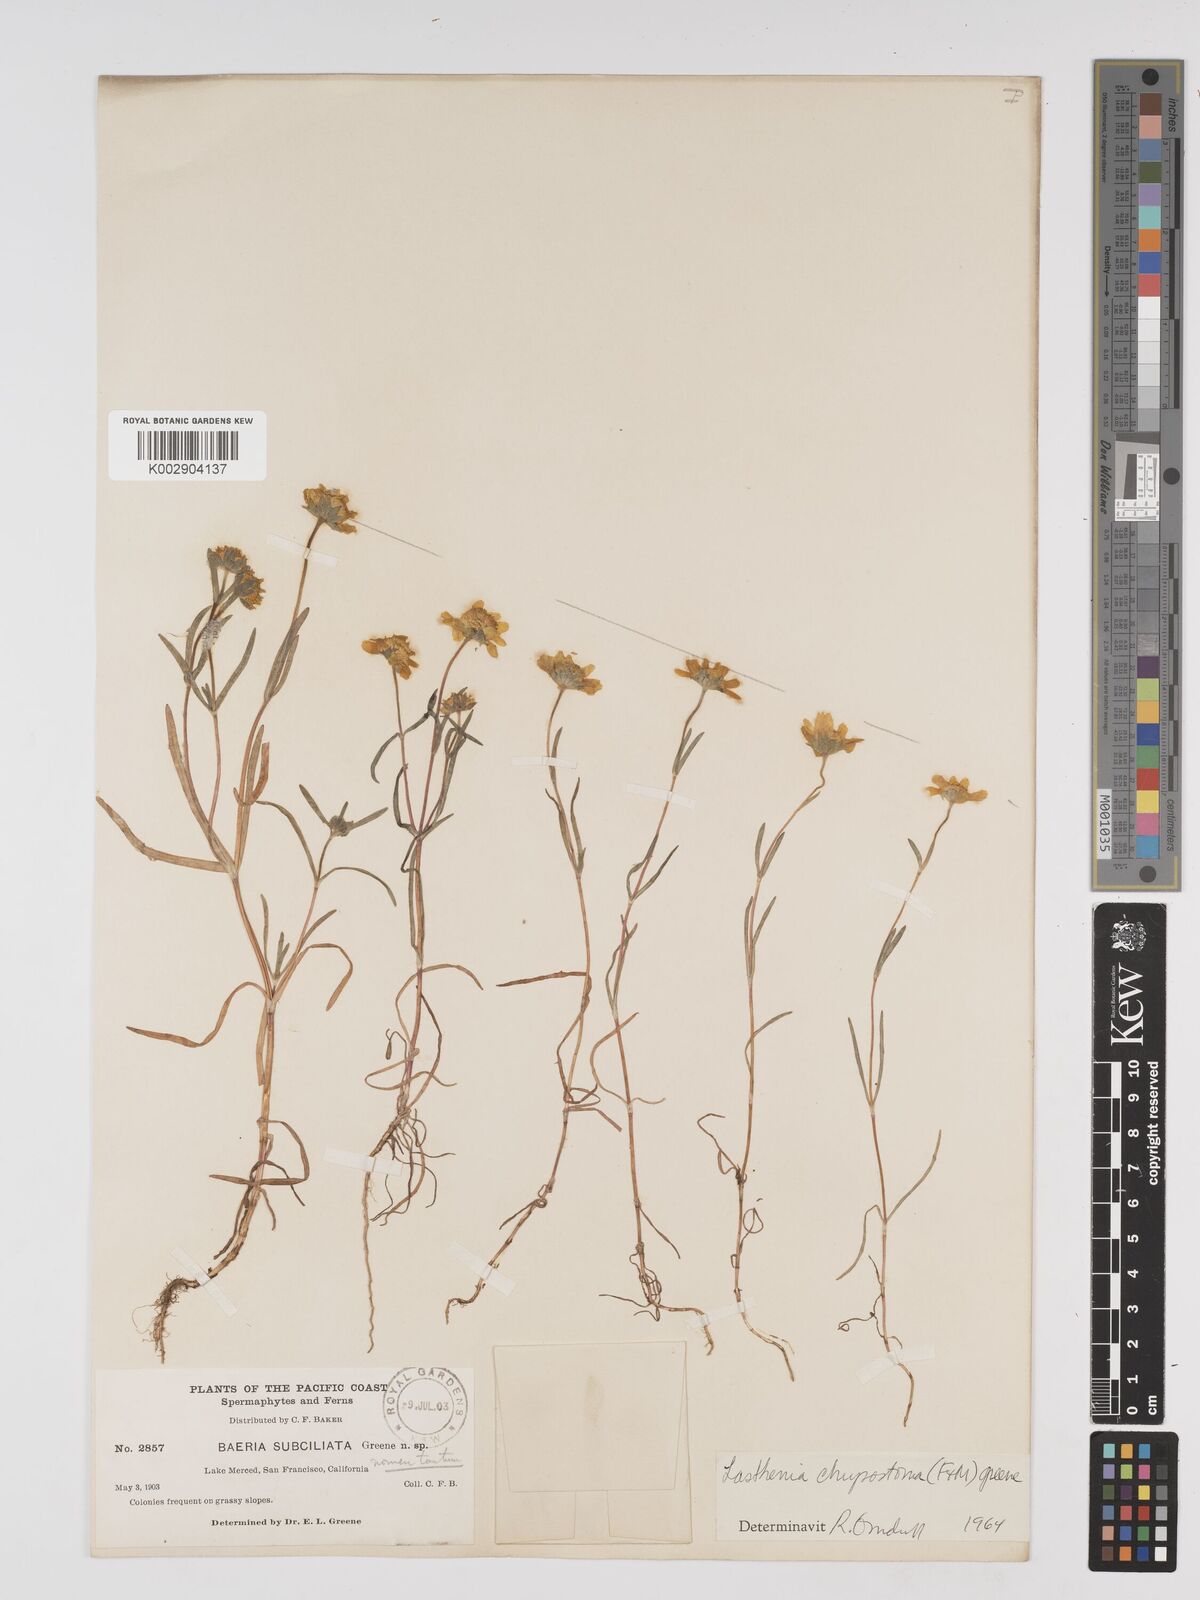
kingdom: Plantae
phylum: Tracheophyta
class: Magnoliopsida
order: Asterales
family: Asteraceae
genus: Lasthenia
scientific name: Lasthenia chrysantha
